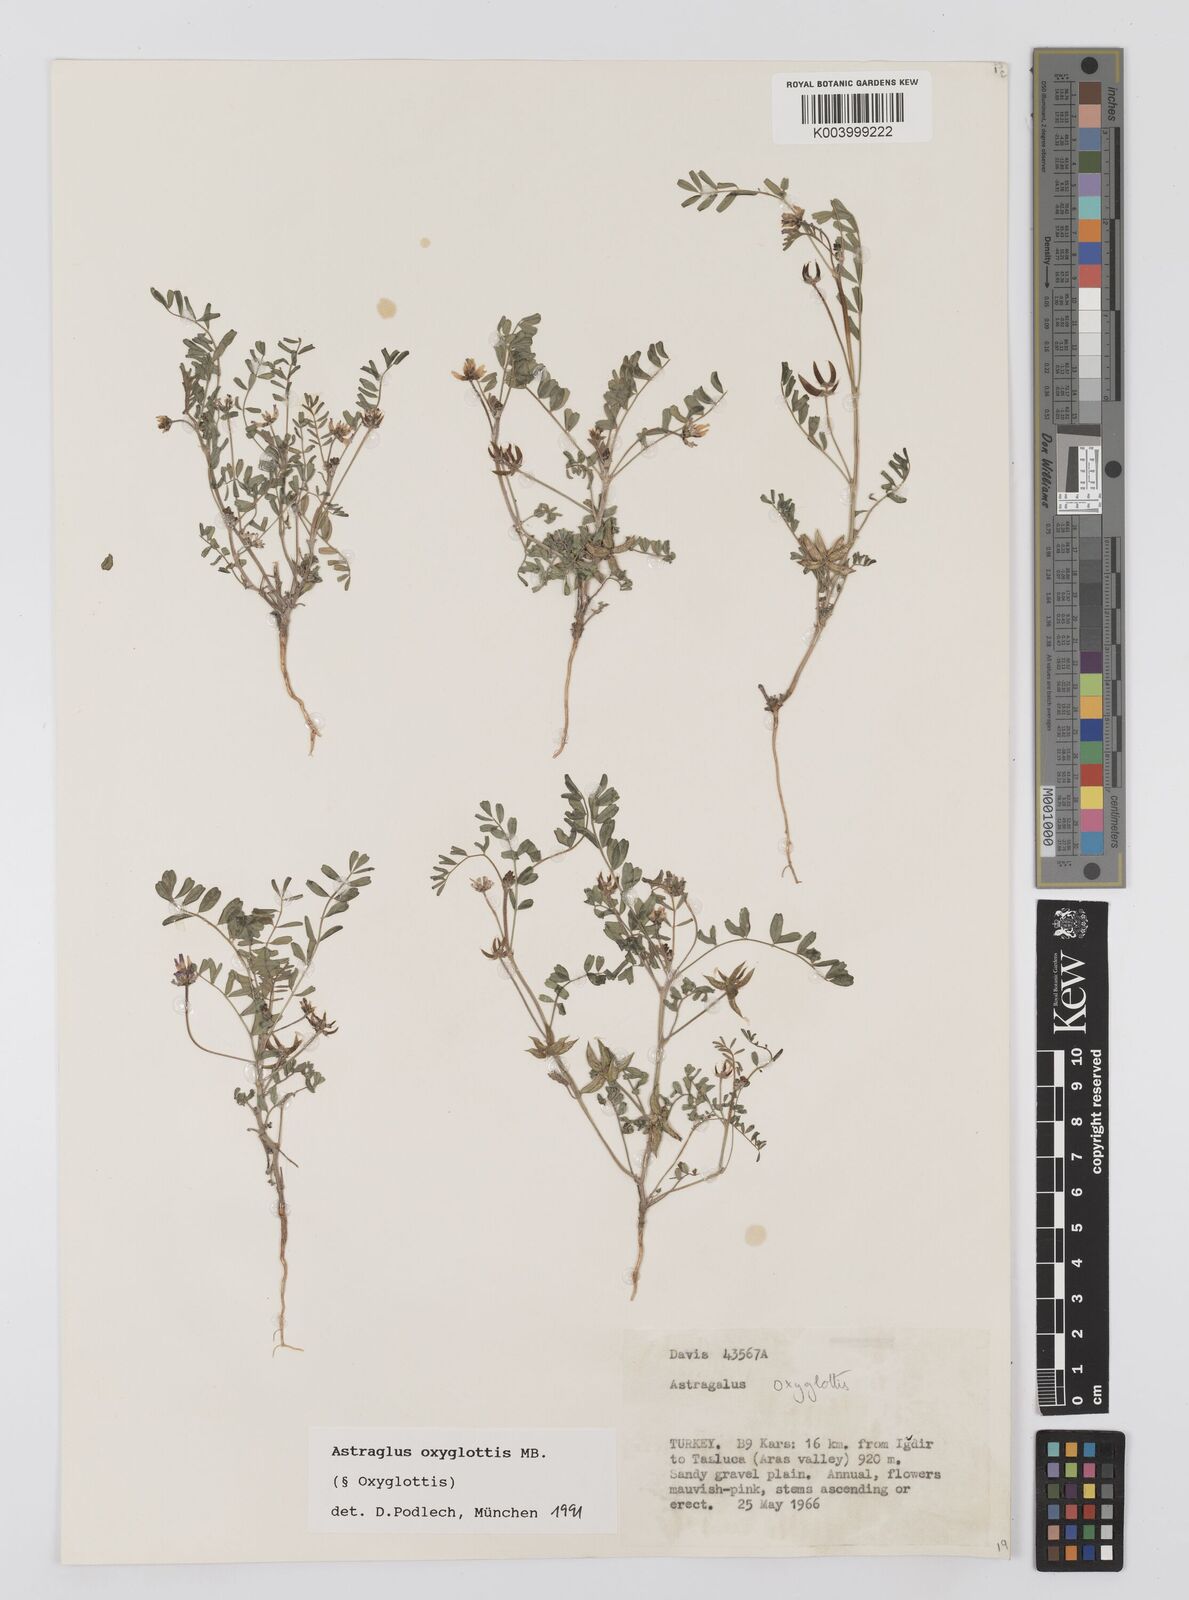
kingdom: Plantae
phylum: Tracheophyta
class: Magnoliopsida
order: Fabales
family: Fabaceae
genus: Astragalus
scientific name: Astragalus oxyglottis
